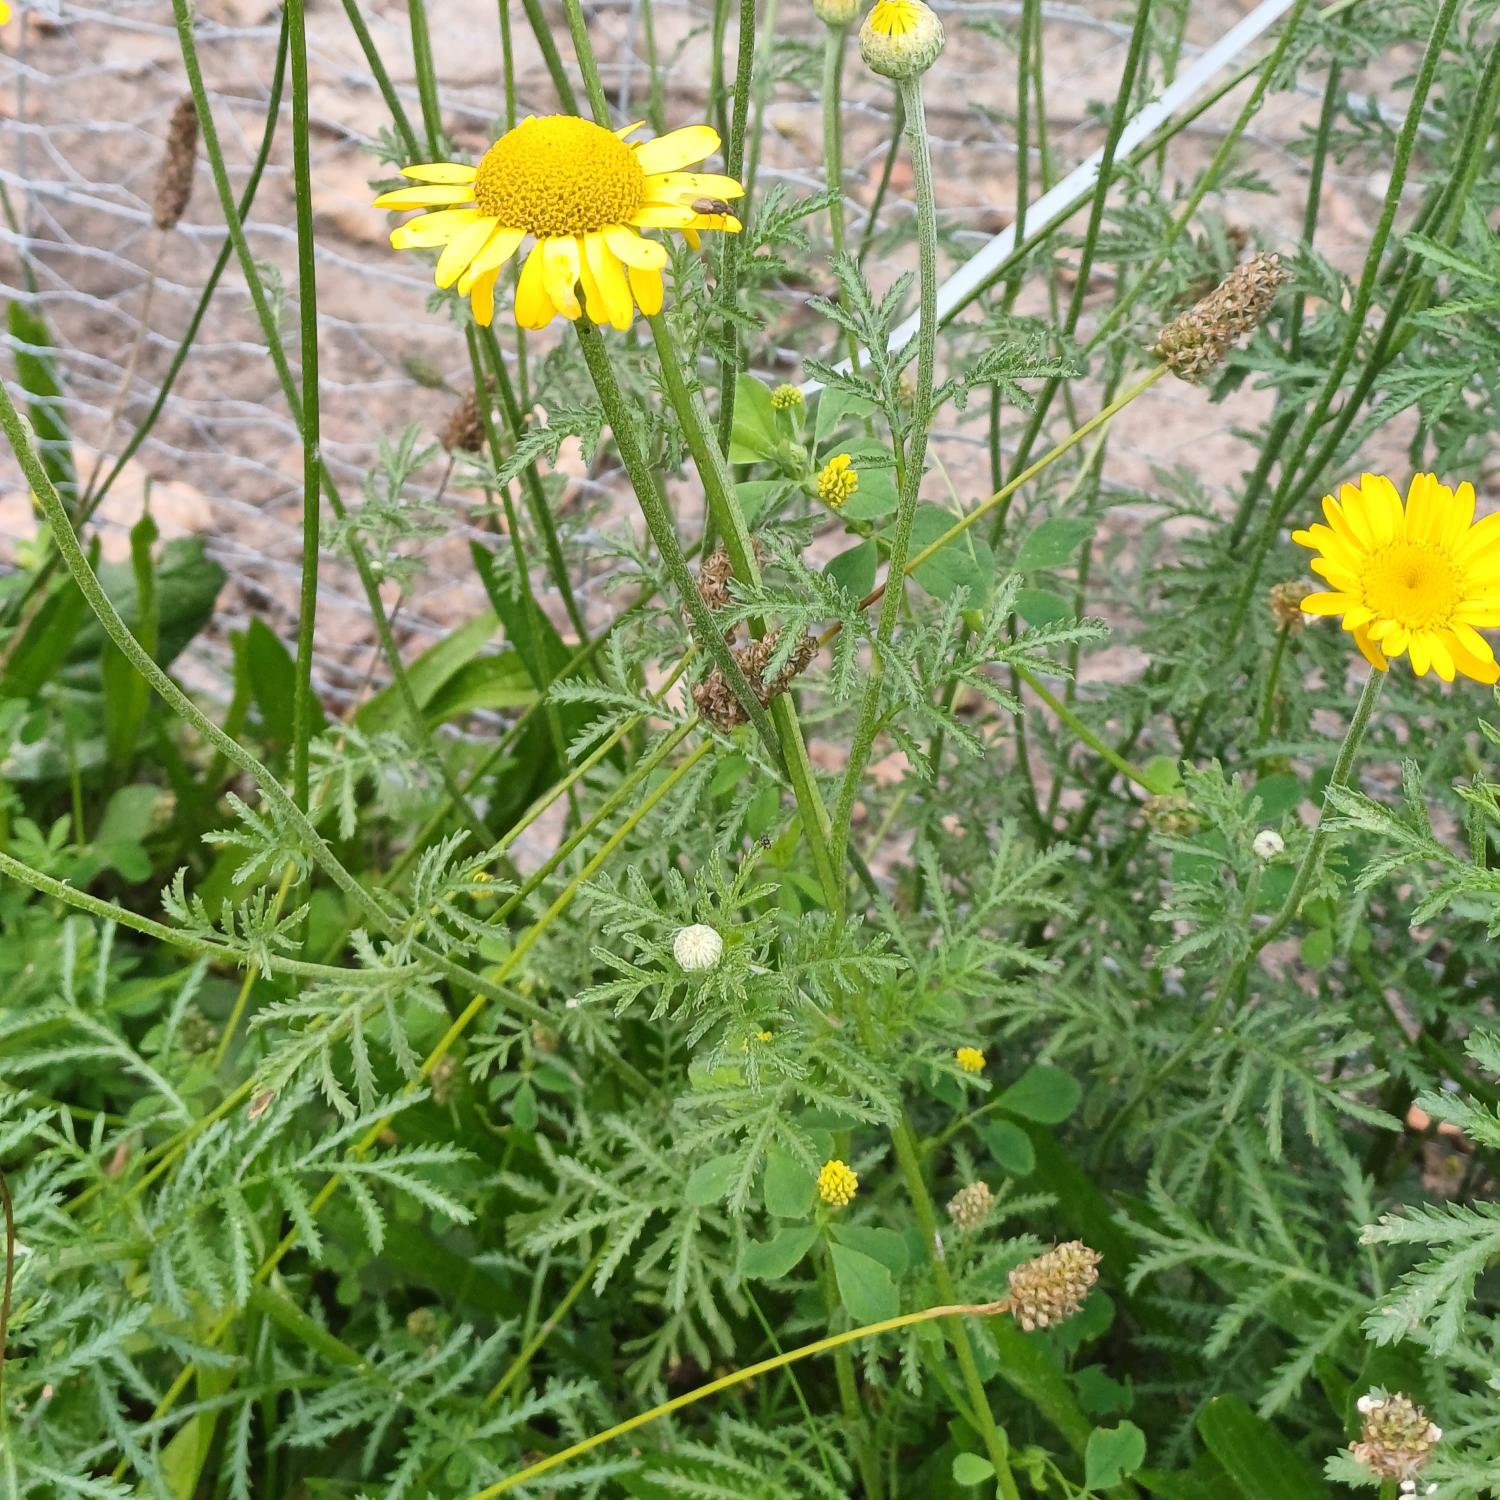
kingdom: Plantae
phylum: Tracheophyta
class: Magnoliopsida
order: Asterales
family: Asteraceae
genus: Cota
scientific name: Cota tinctoria
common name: Farve-gåseurt
